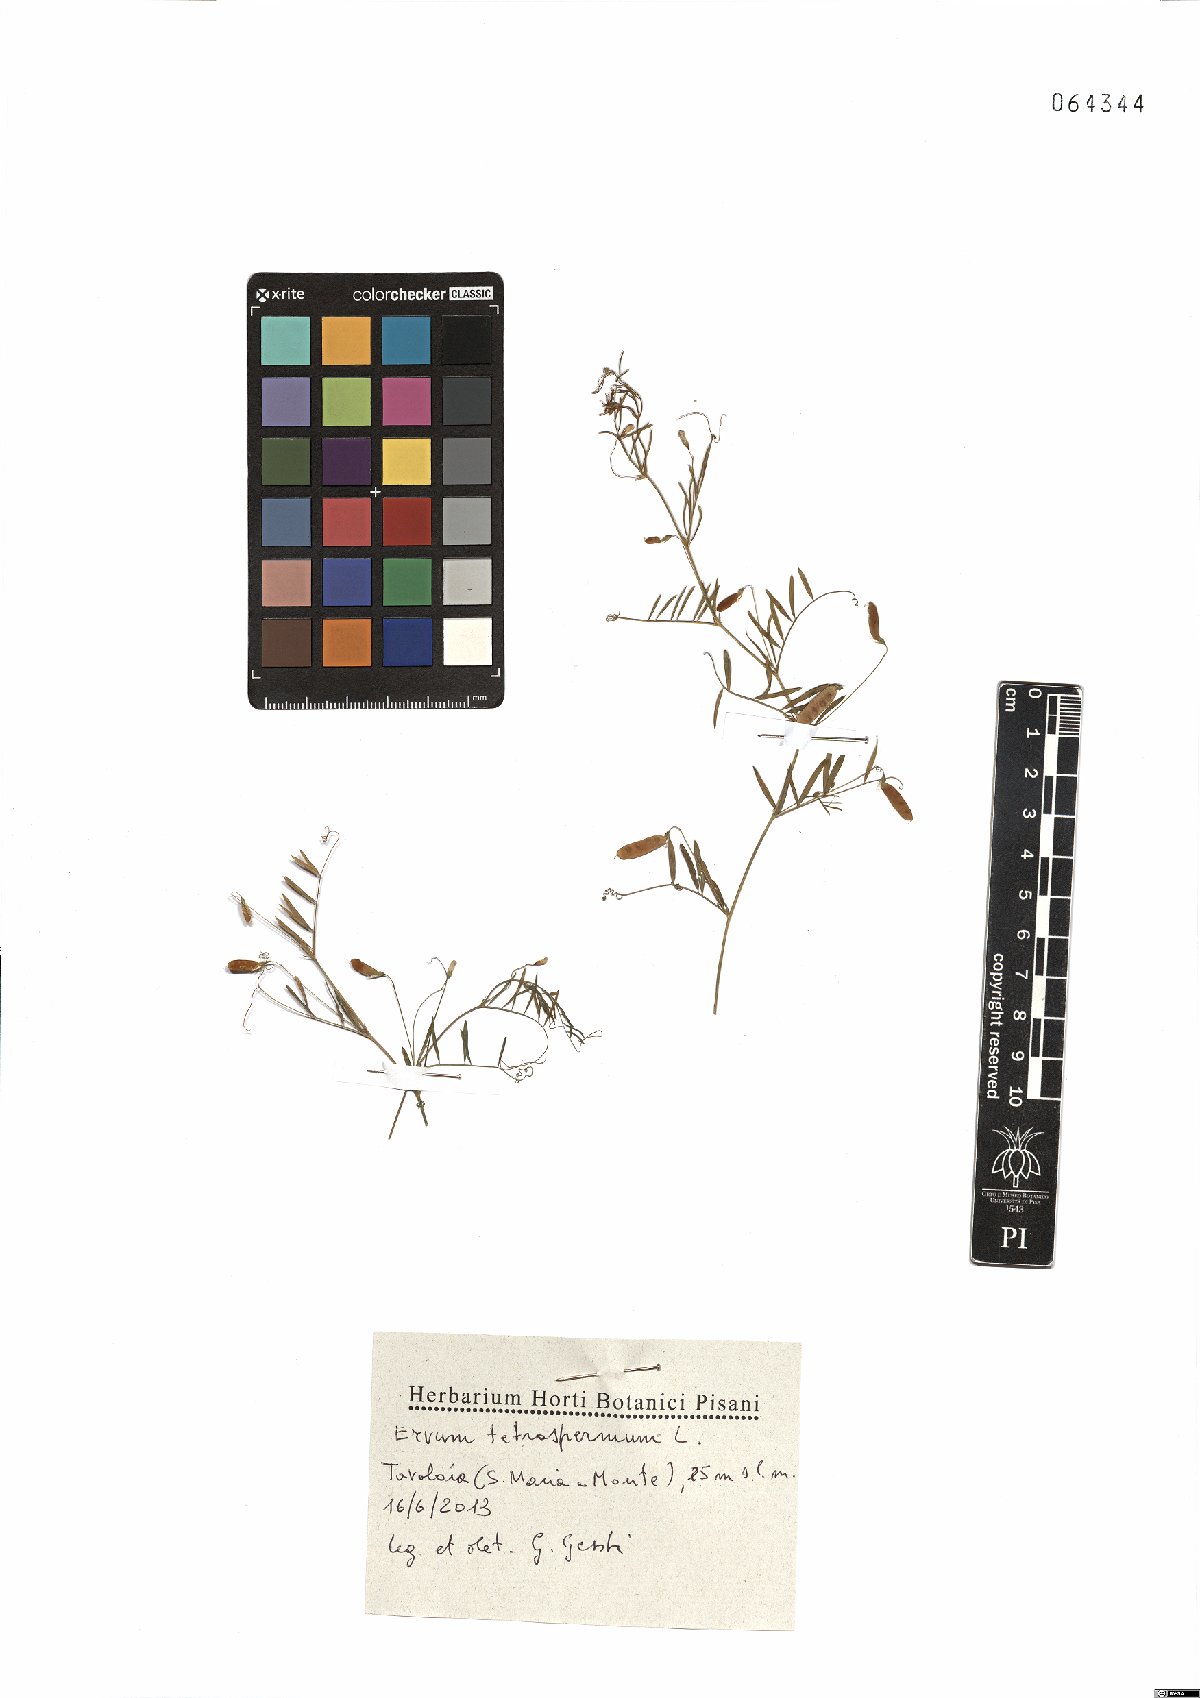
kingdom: Plantae
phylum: Tracheophyta
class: Magnoliopsida
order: Fabales
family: Fabaceae
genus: Vicia
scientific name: Vicia tetrasperma
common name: Smooth tare
